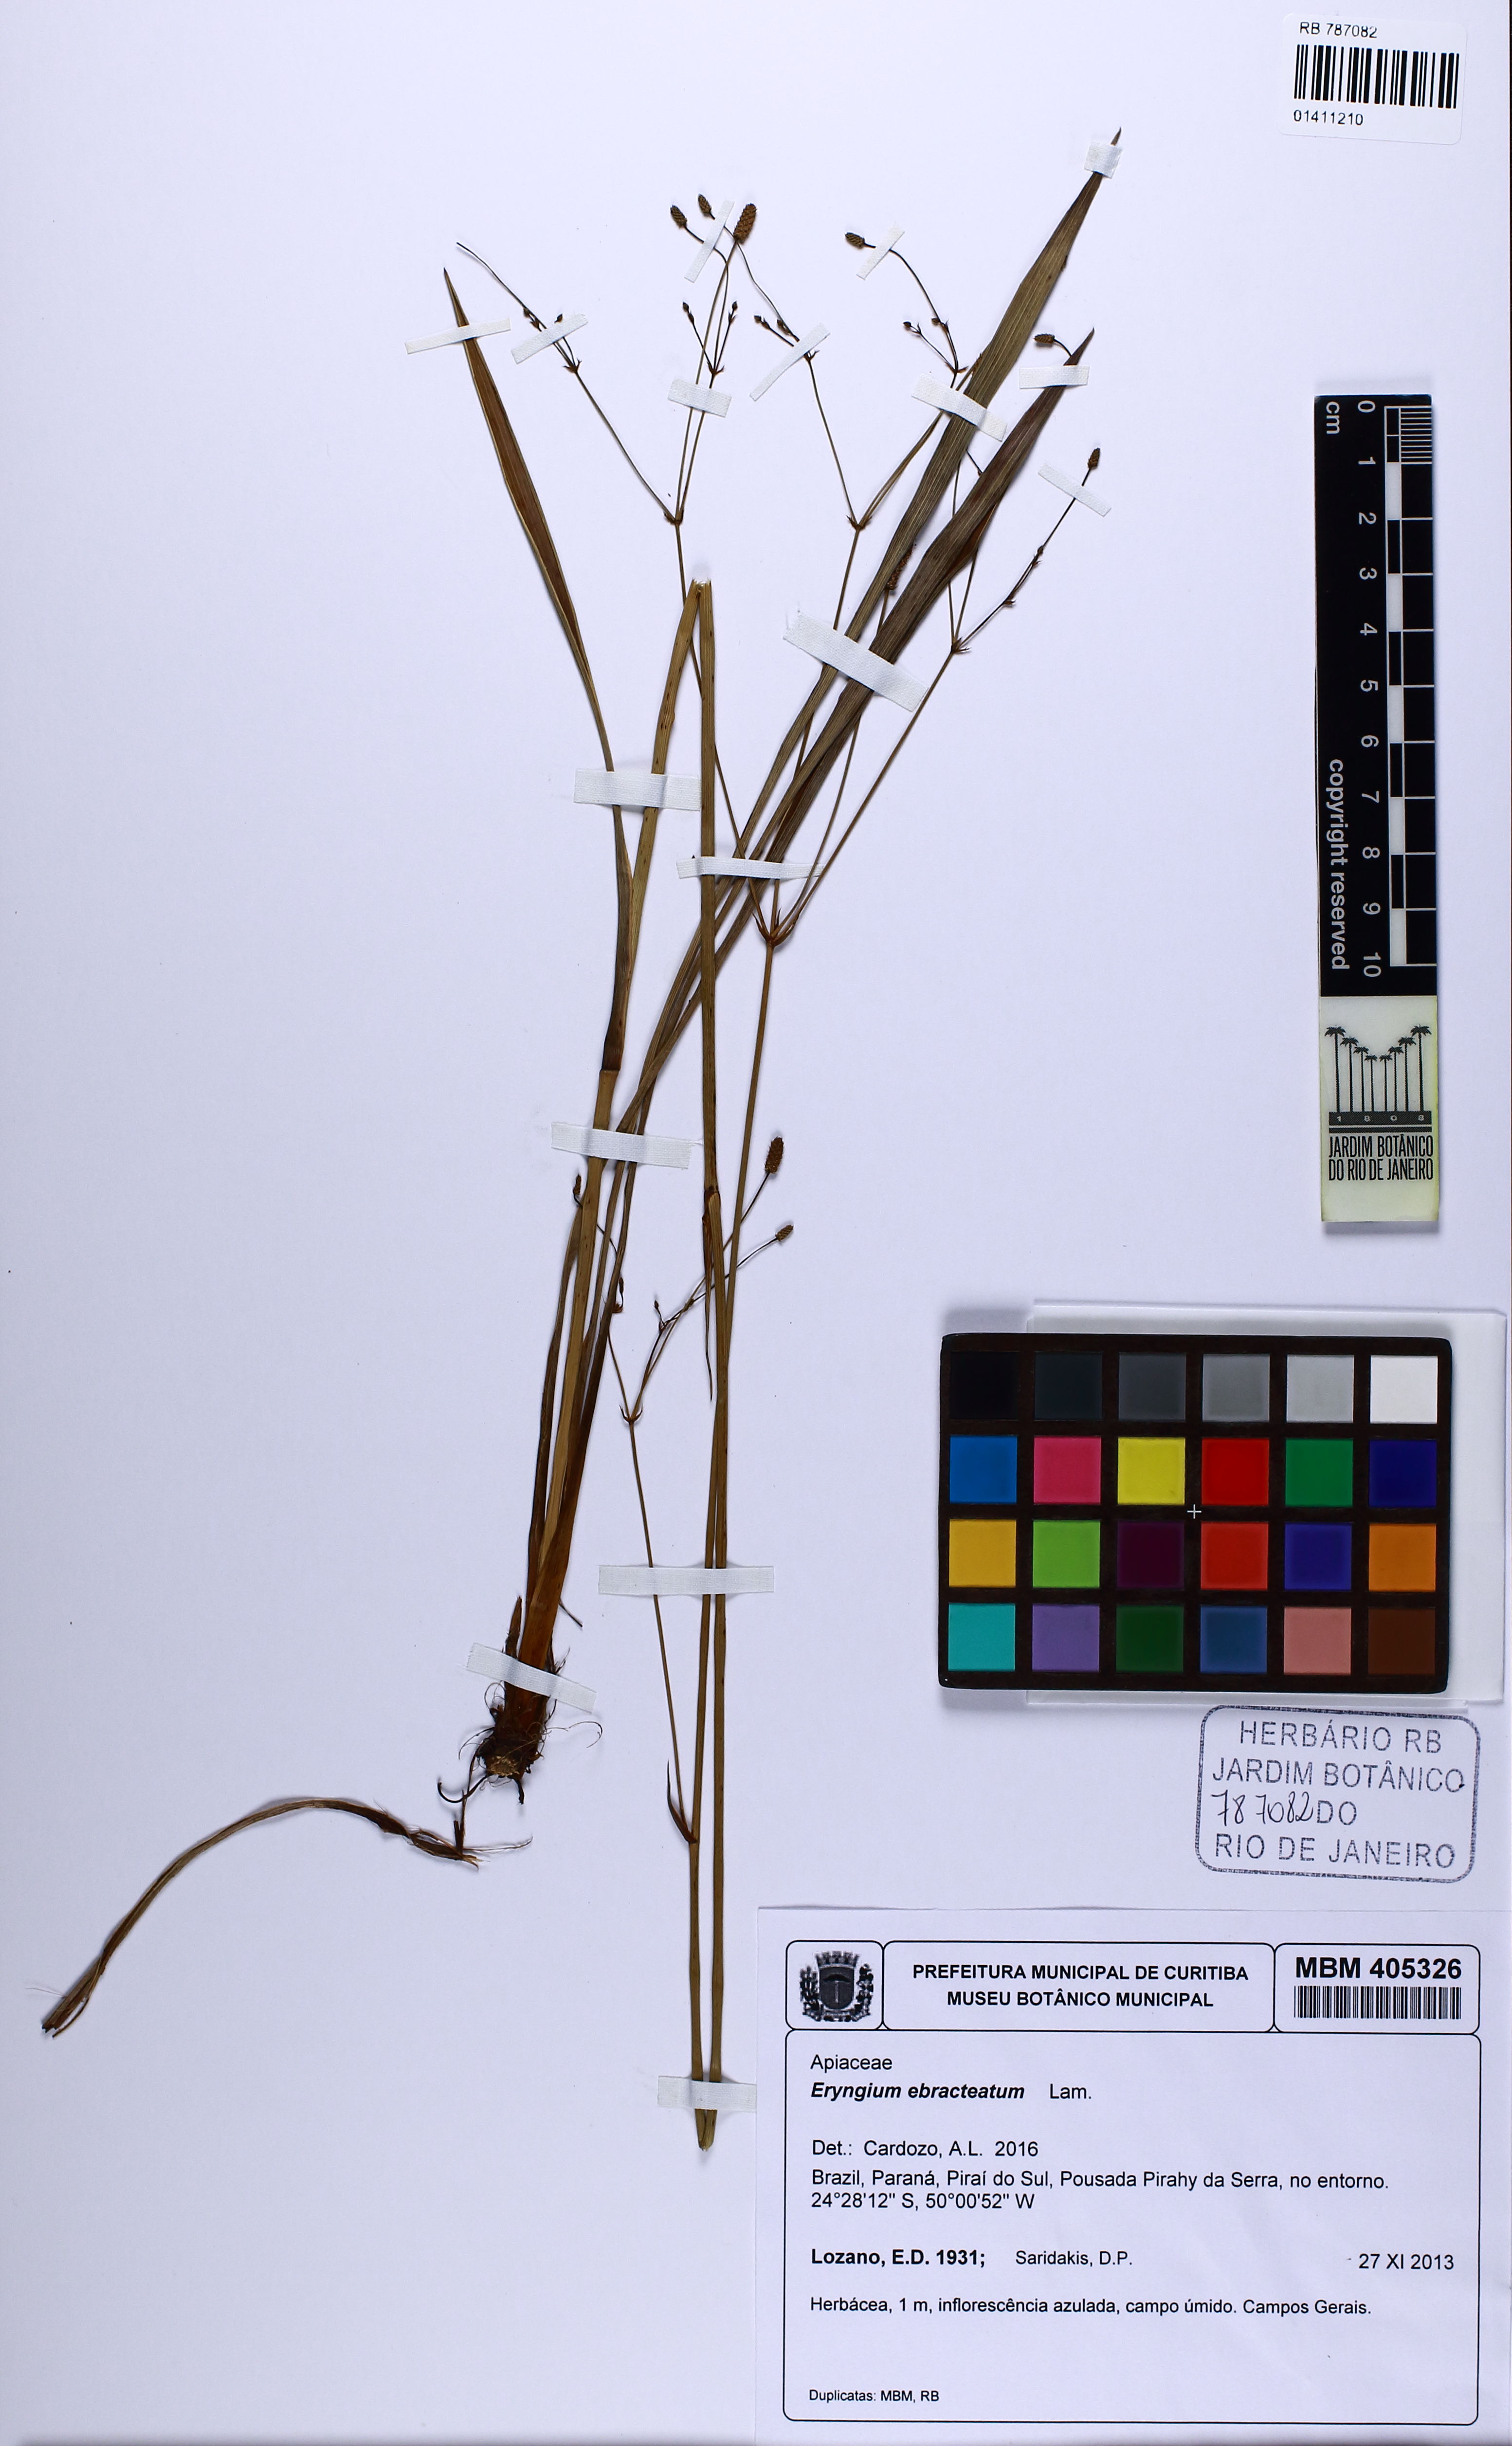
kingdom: Plantae
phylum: Tracheophyta
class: Magnoliopsida
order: Apiales
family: Apiaceae
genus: Eryngium
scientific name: Eryngium ebracteatum
